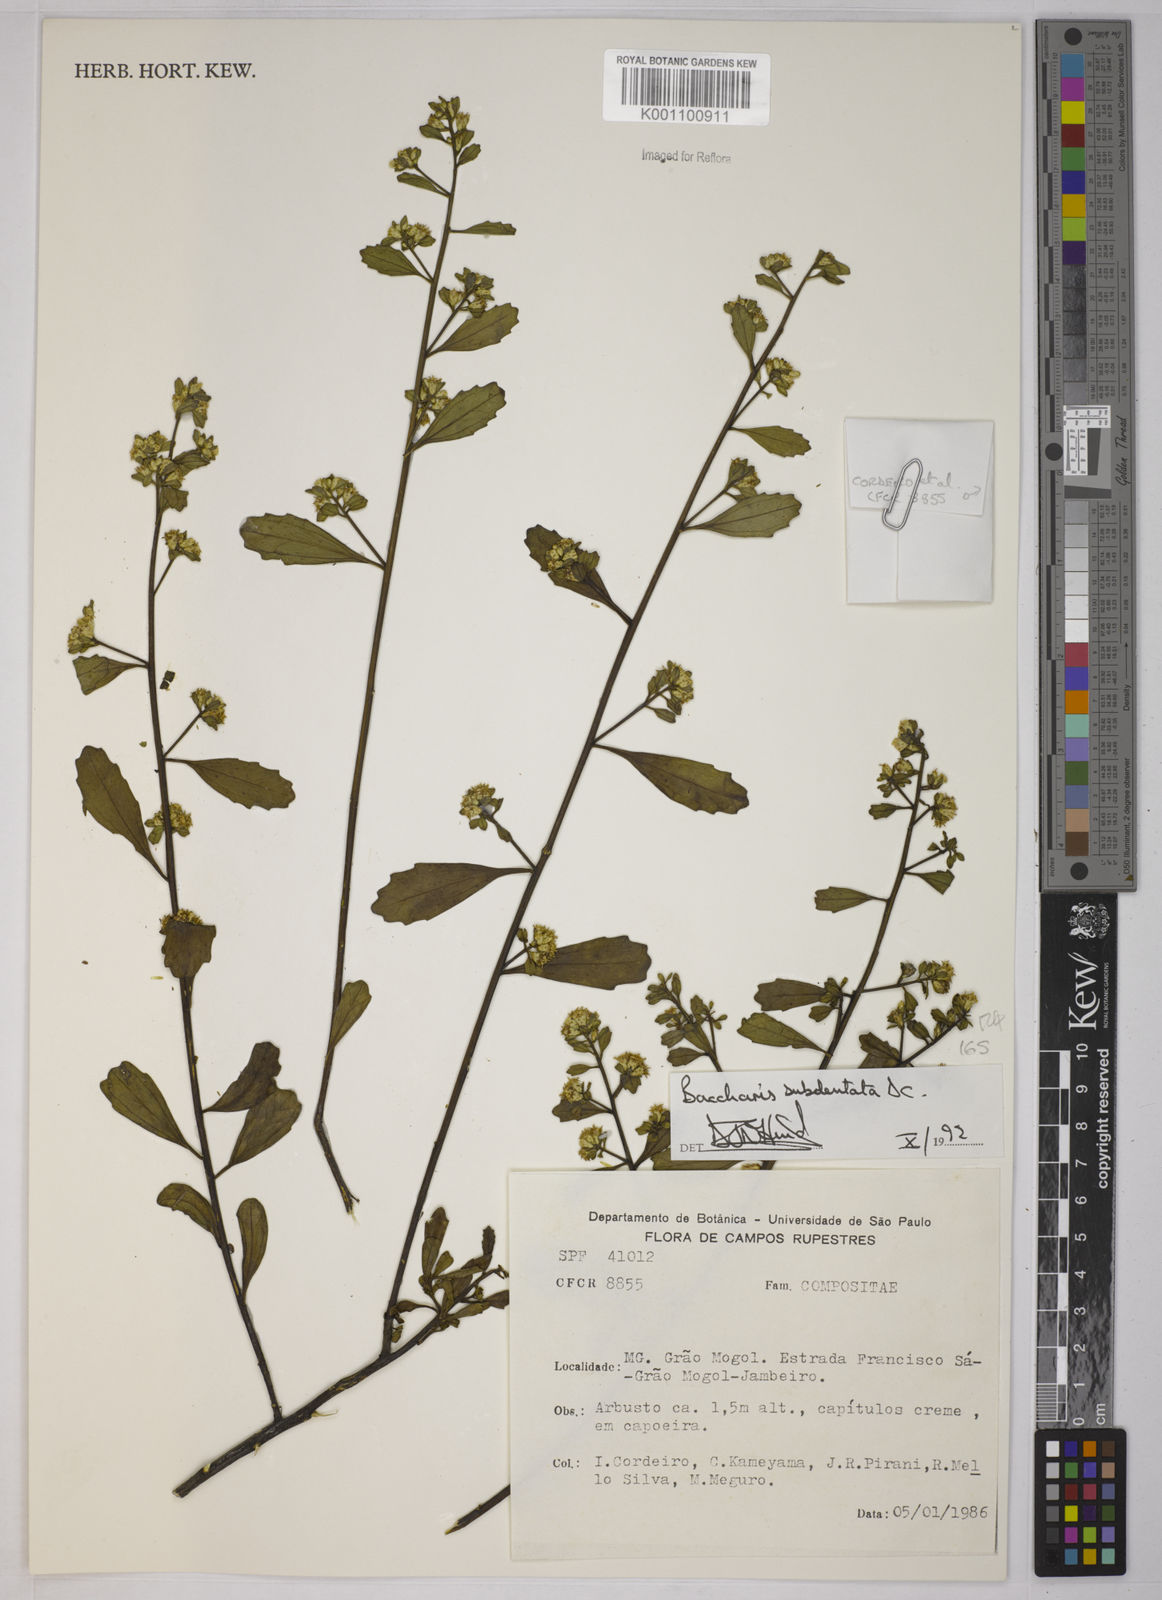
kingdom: Plantae
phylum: Tracheophyta
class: Magnoliopsida
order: Asterales
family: Asteraceae
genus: Baccharis
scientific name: Baccharis subdentata
